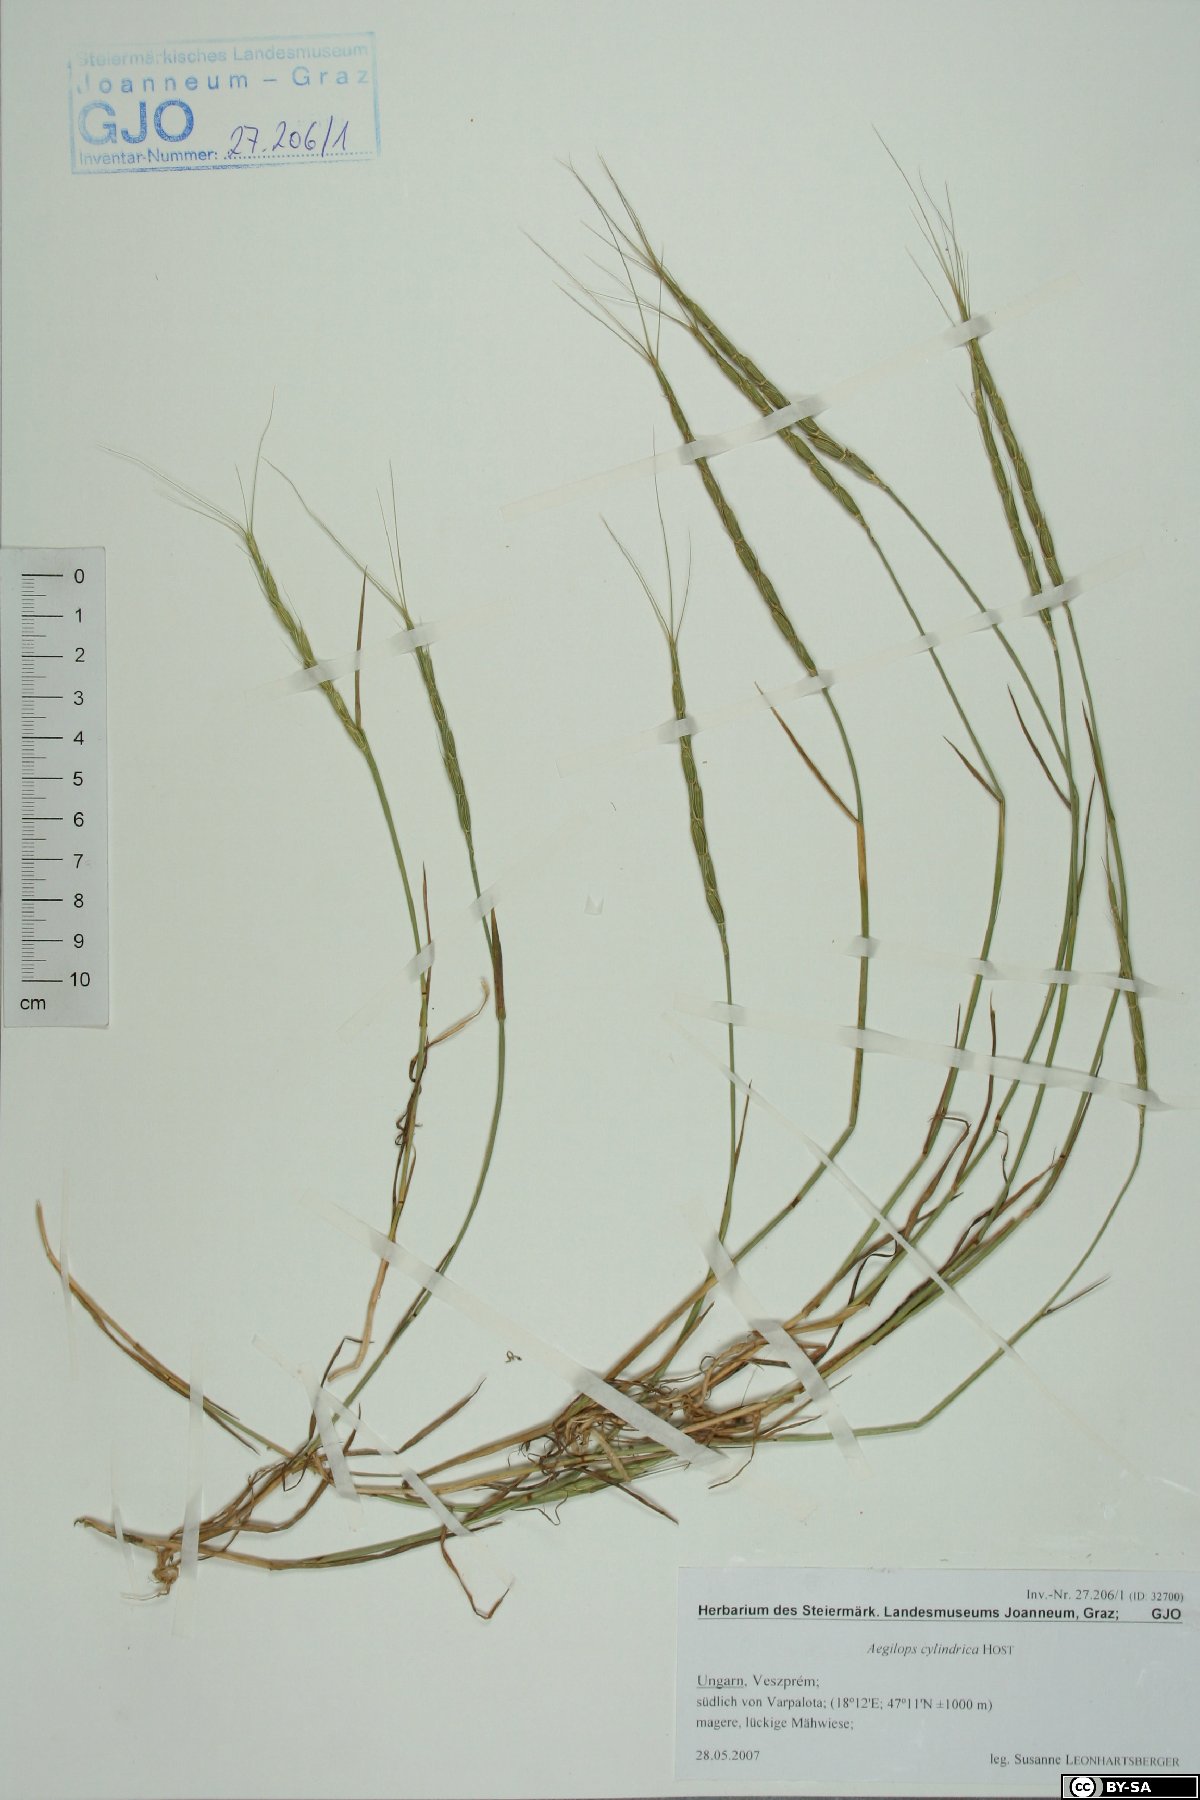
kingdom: Plantae
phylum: Tracheophyta
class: Liliopsida
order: Poales
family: Poaceae
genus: Aegilops
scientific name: Aegilops cylindrica
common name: Jointed goatgrass
